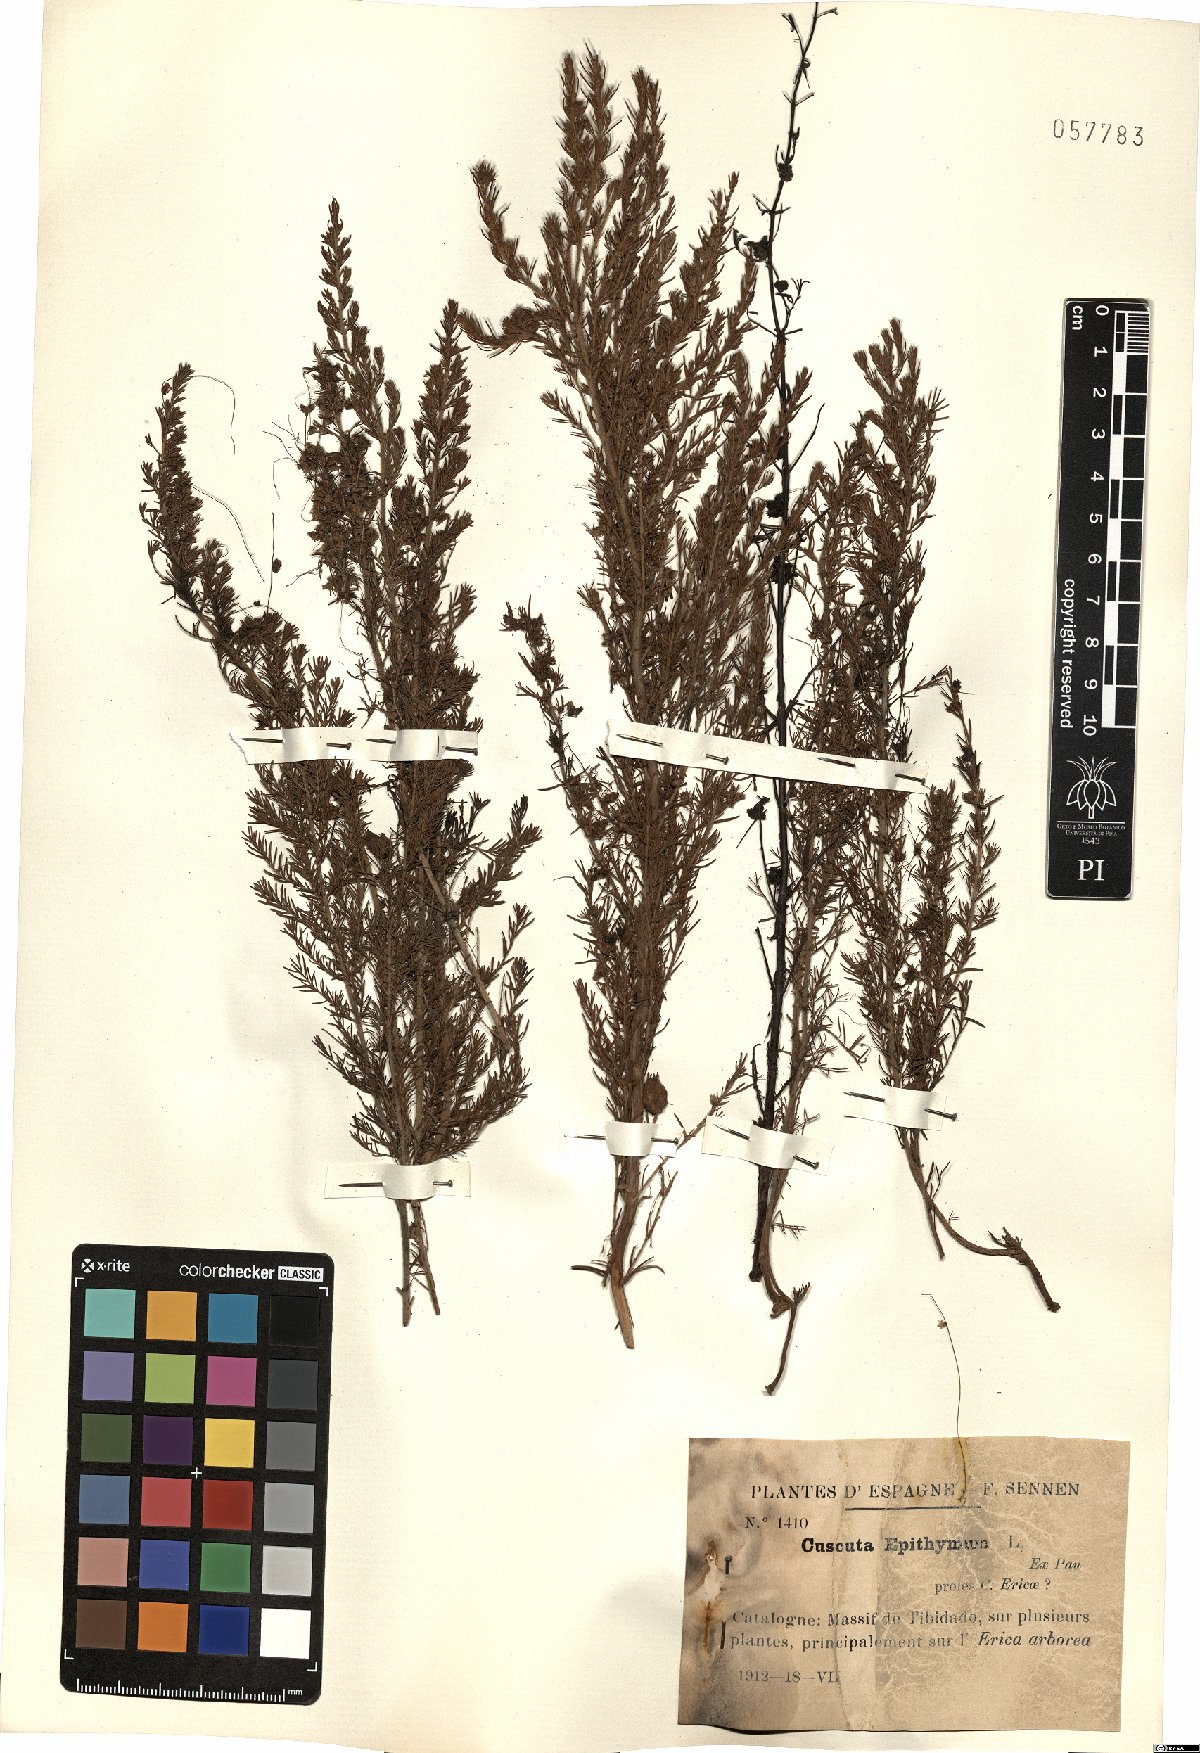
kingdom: Plantae
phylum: Tracheophyta
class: Magnoliopsida
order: Solanales
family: Convolvulaceae
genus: Cuscuta
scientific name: Cuscuta epithymum
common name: Clover dodder
